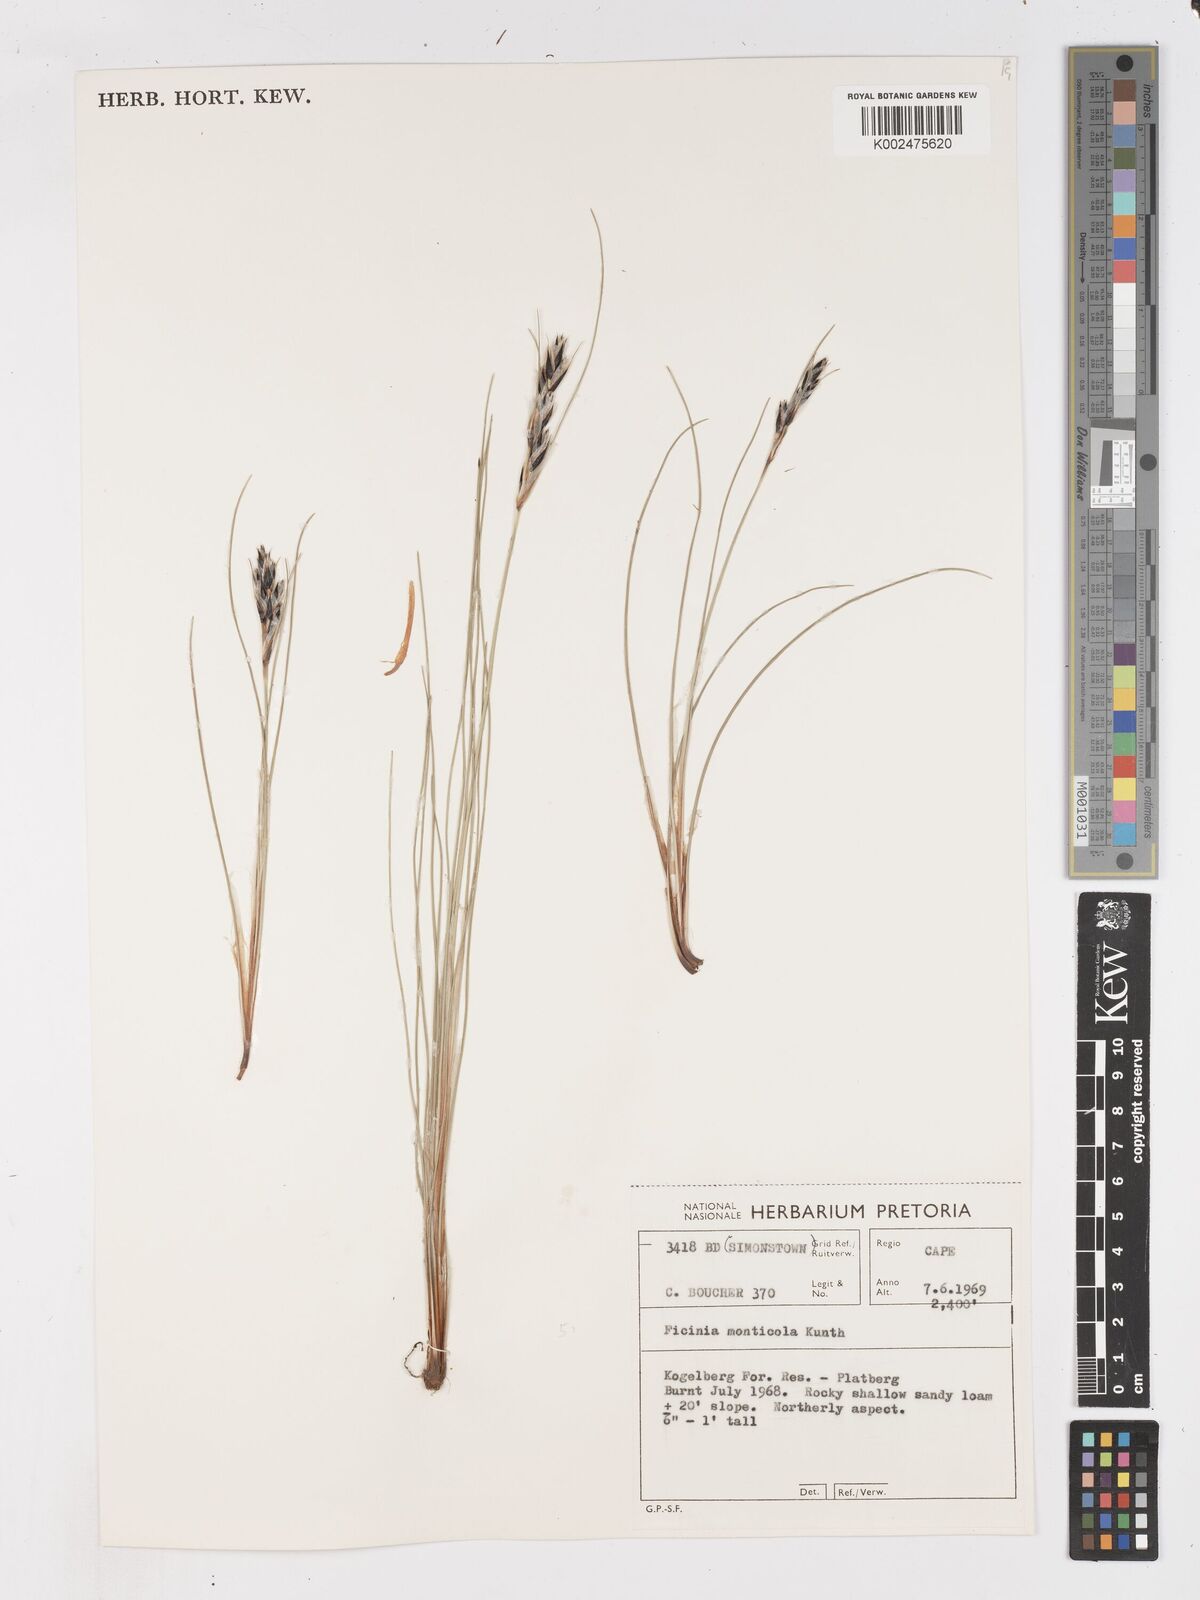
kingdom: Plantae
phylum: Tracheophyta
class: Liliopsida
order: Poales
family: Cyperaceae
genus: Ficinia
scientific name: Ficinia monticola
